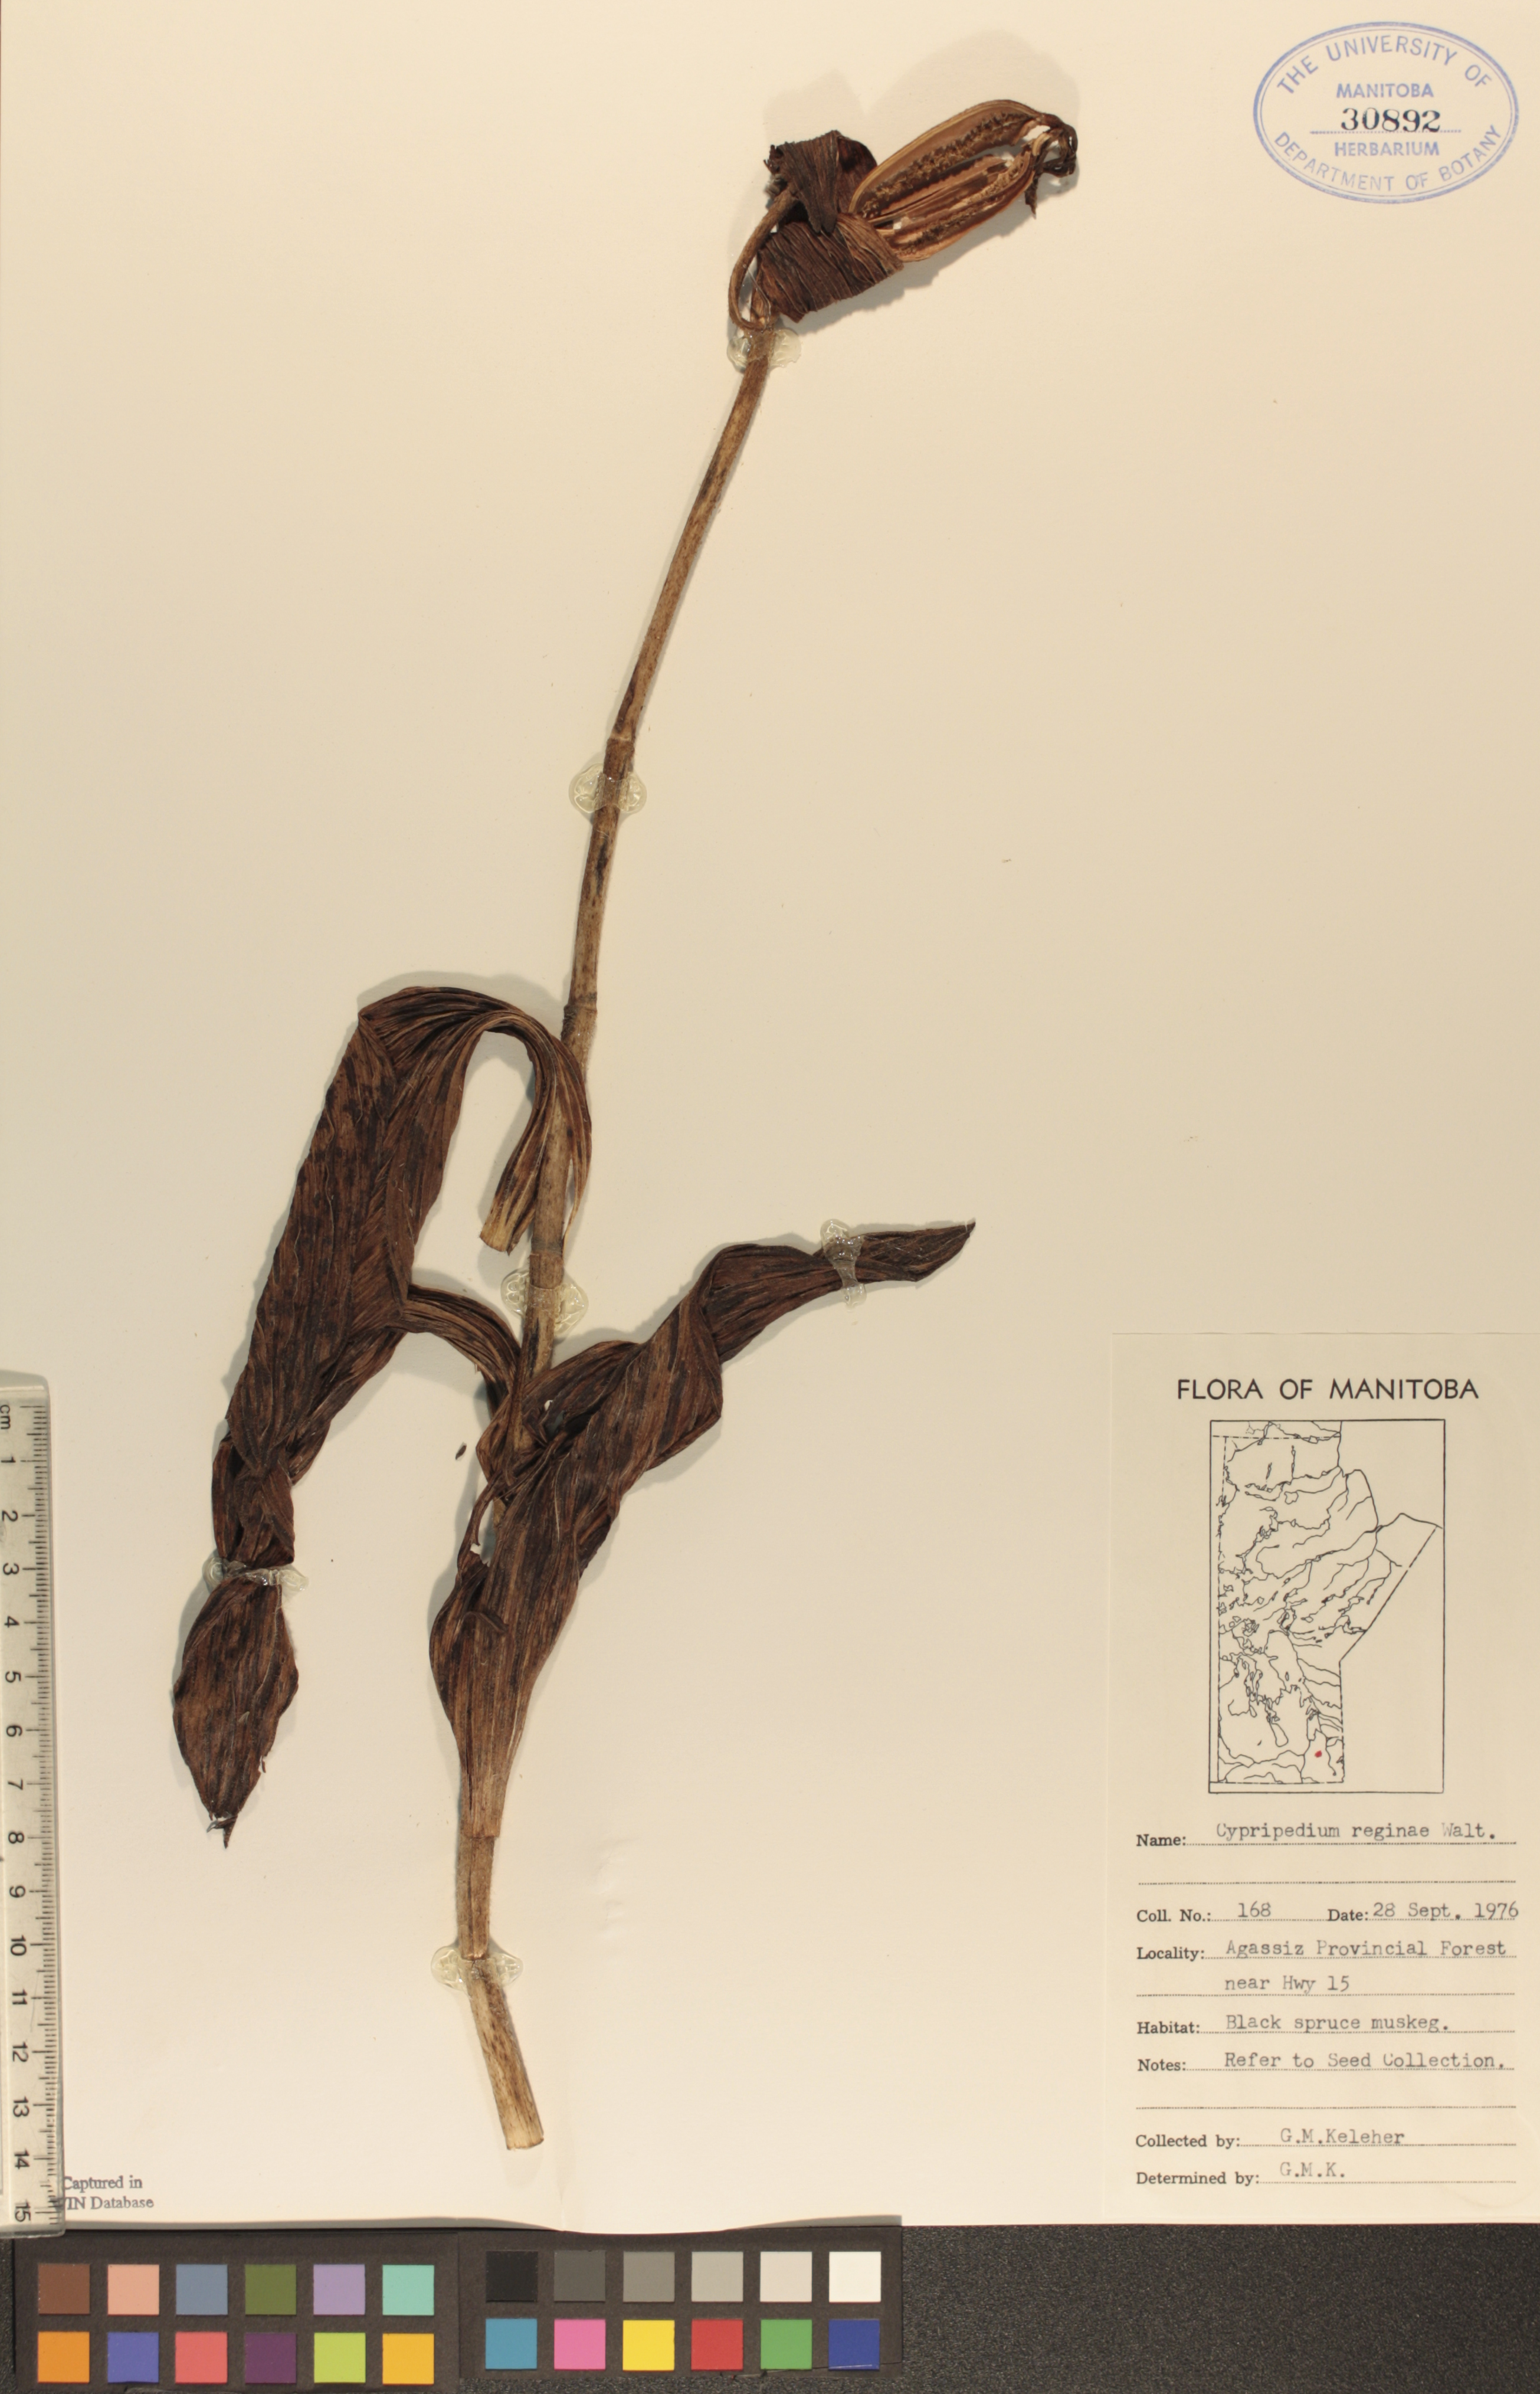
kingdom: Plantae
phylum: Tracheophyta
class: Liliopsida
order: Asparagales
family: Orchidaceae
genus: Cypripedium
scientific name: Cypripedium reginae
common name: Queen lady's-slipper
